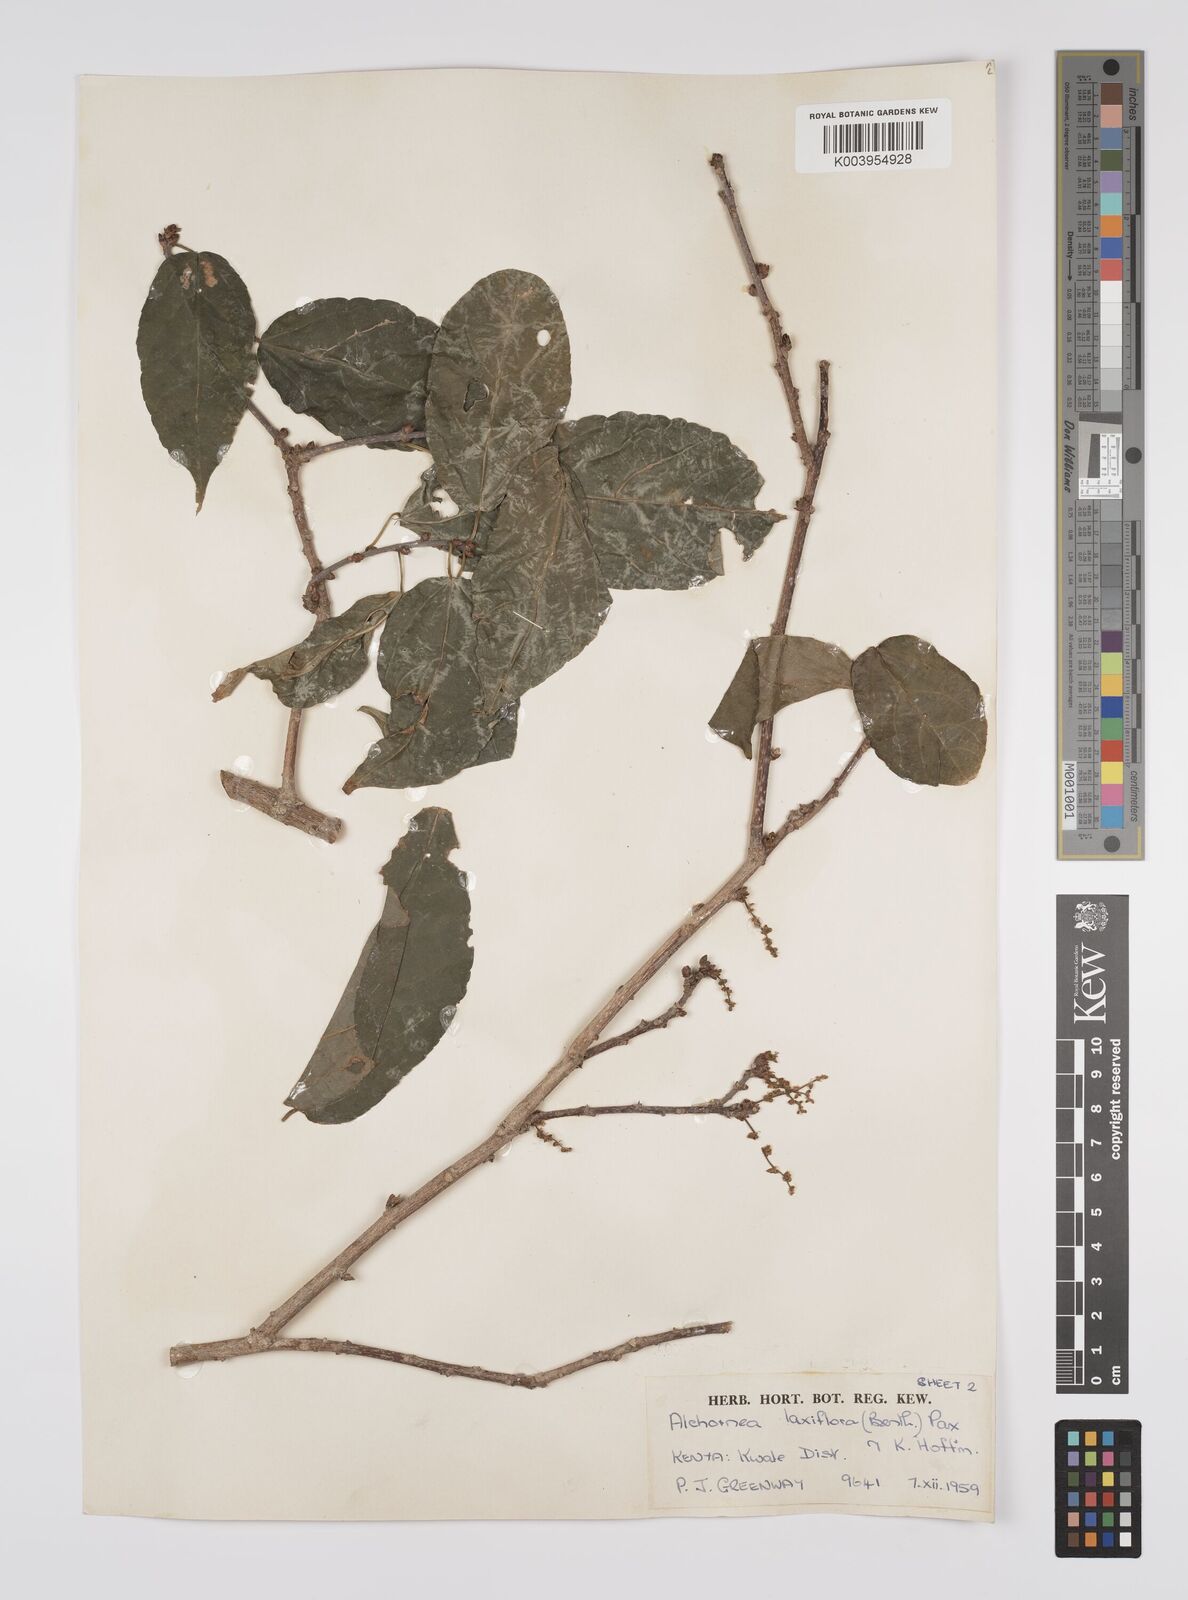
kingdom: Plantae
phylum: Tracheophyta
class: Magnoliopsida
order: Malpighiales
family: Euphorbiaceae
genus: Alchornea
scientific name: Alchornea laxiflora
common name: Lowveld bead-string
